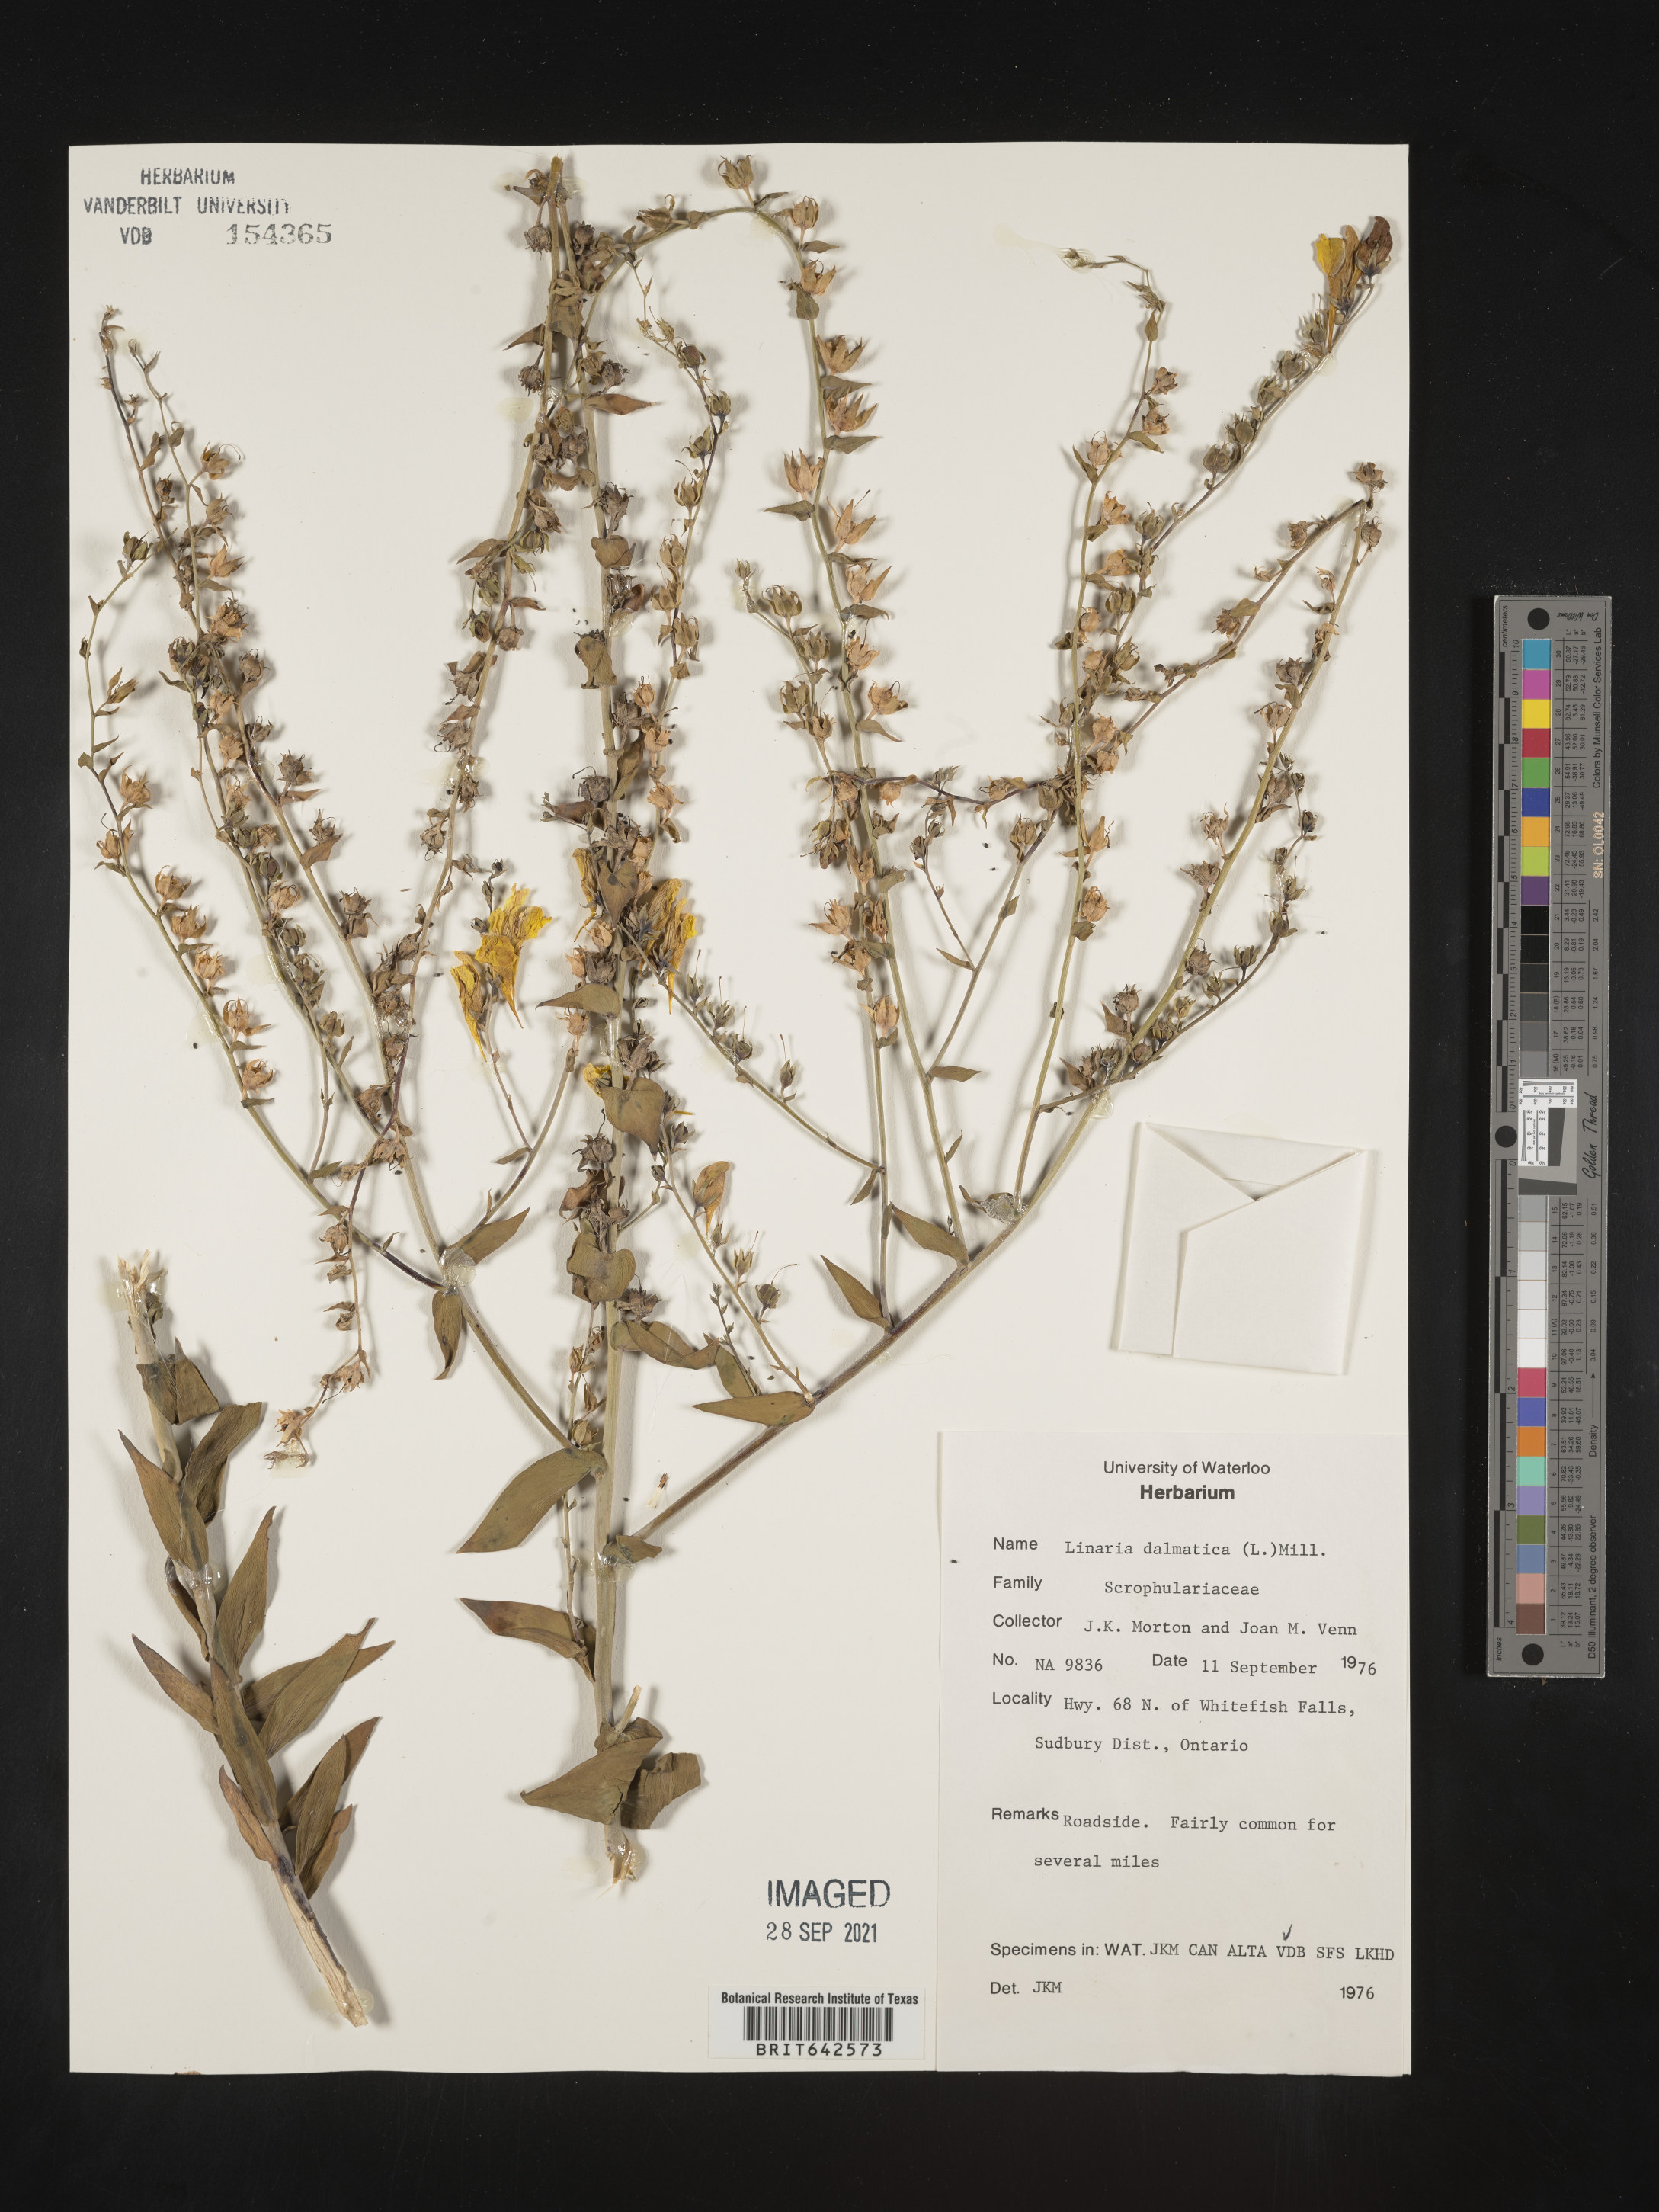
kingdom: Plantae
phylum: Tracheophyta
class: Magnoliopsida
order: Lamiales
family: Plantaginaceae
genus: Linaria
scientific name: Linaria
